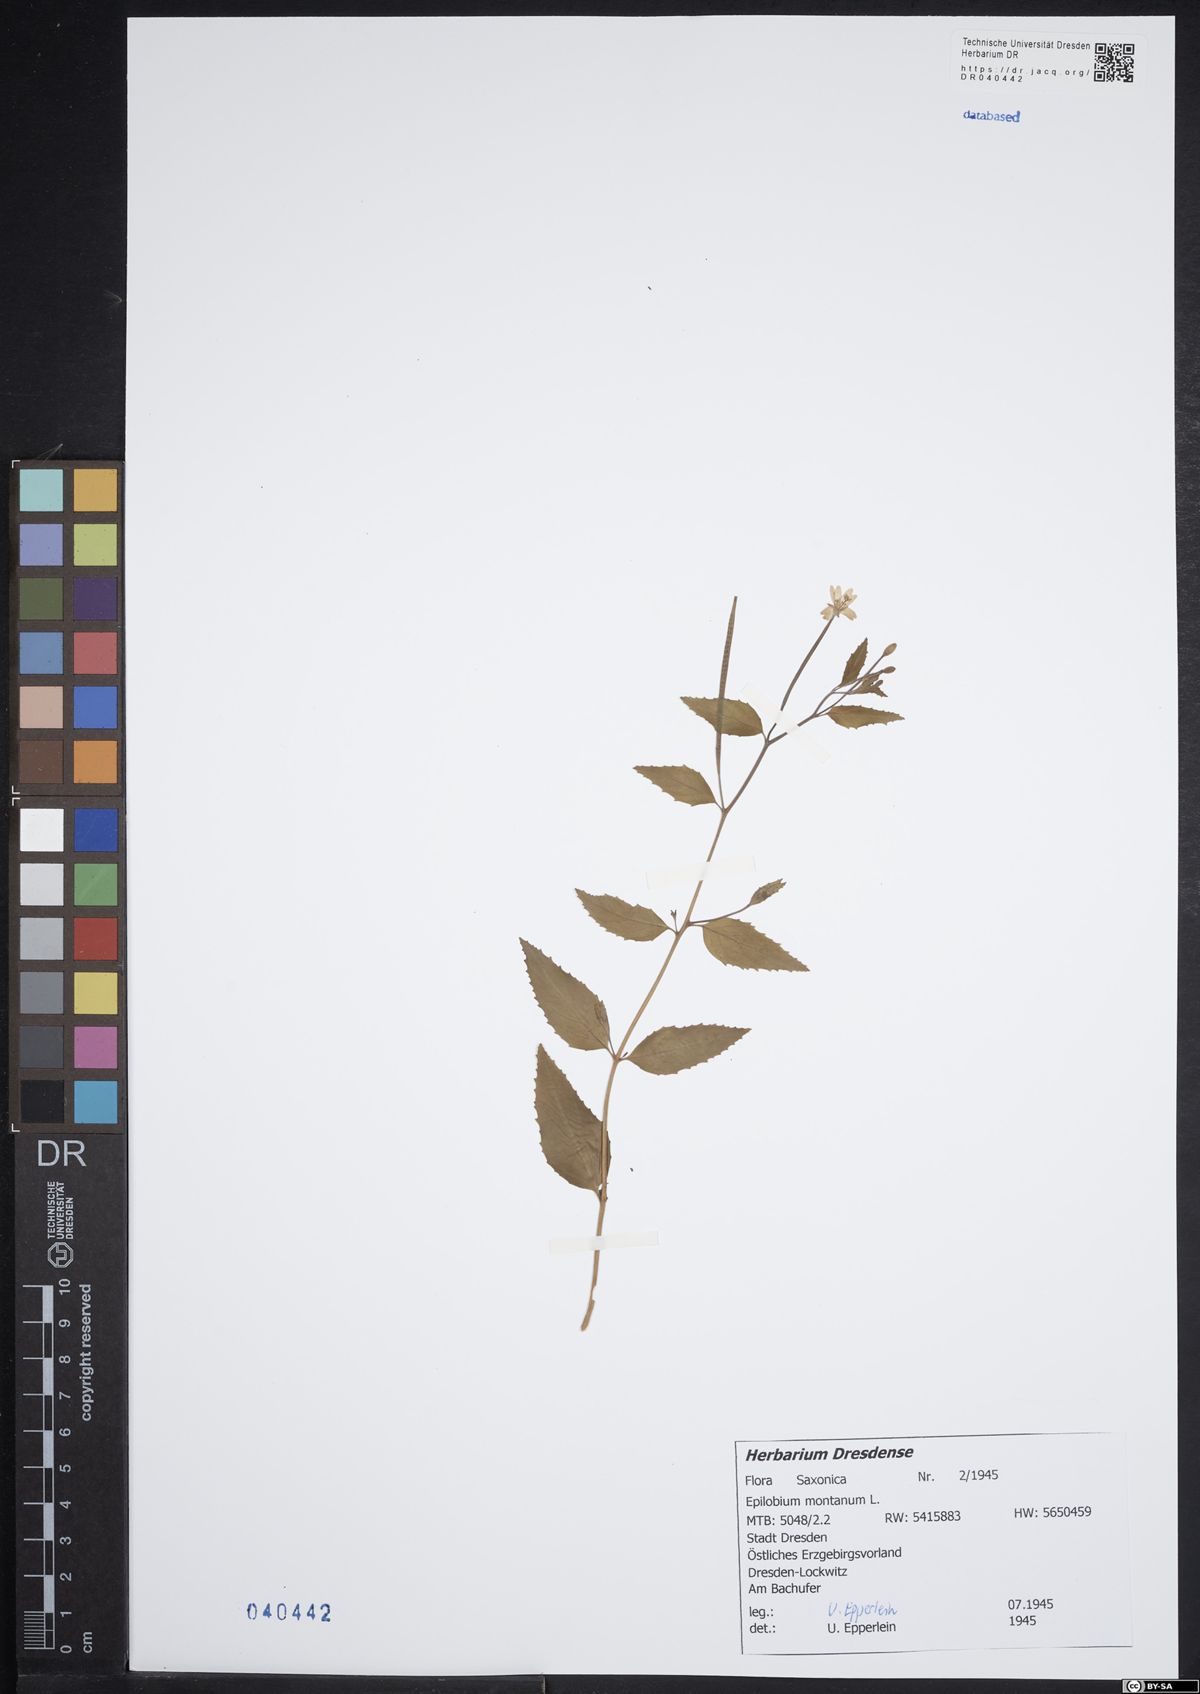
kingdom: Plantae
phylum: Tracheophyta
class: Magnoliopsida
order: Myrtales
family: Onagraceae
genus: Epilobium
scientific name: Epilobium montanum
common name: Broad-leaved willowherb
